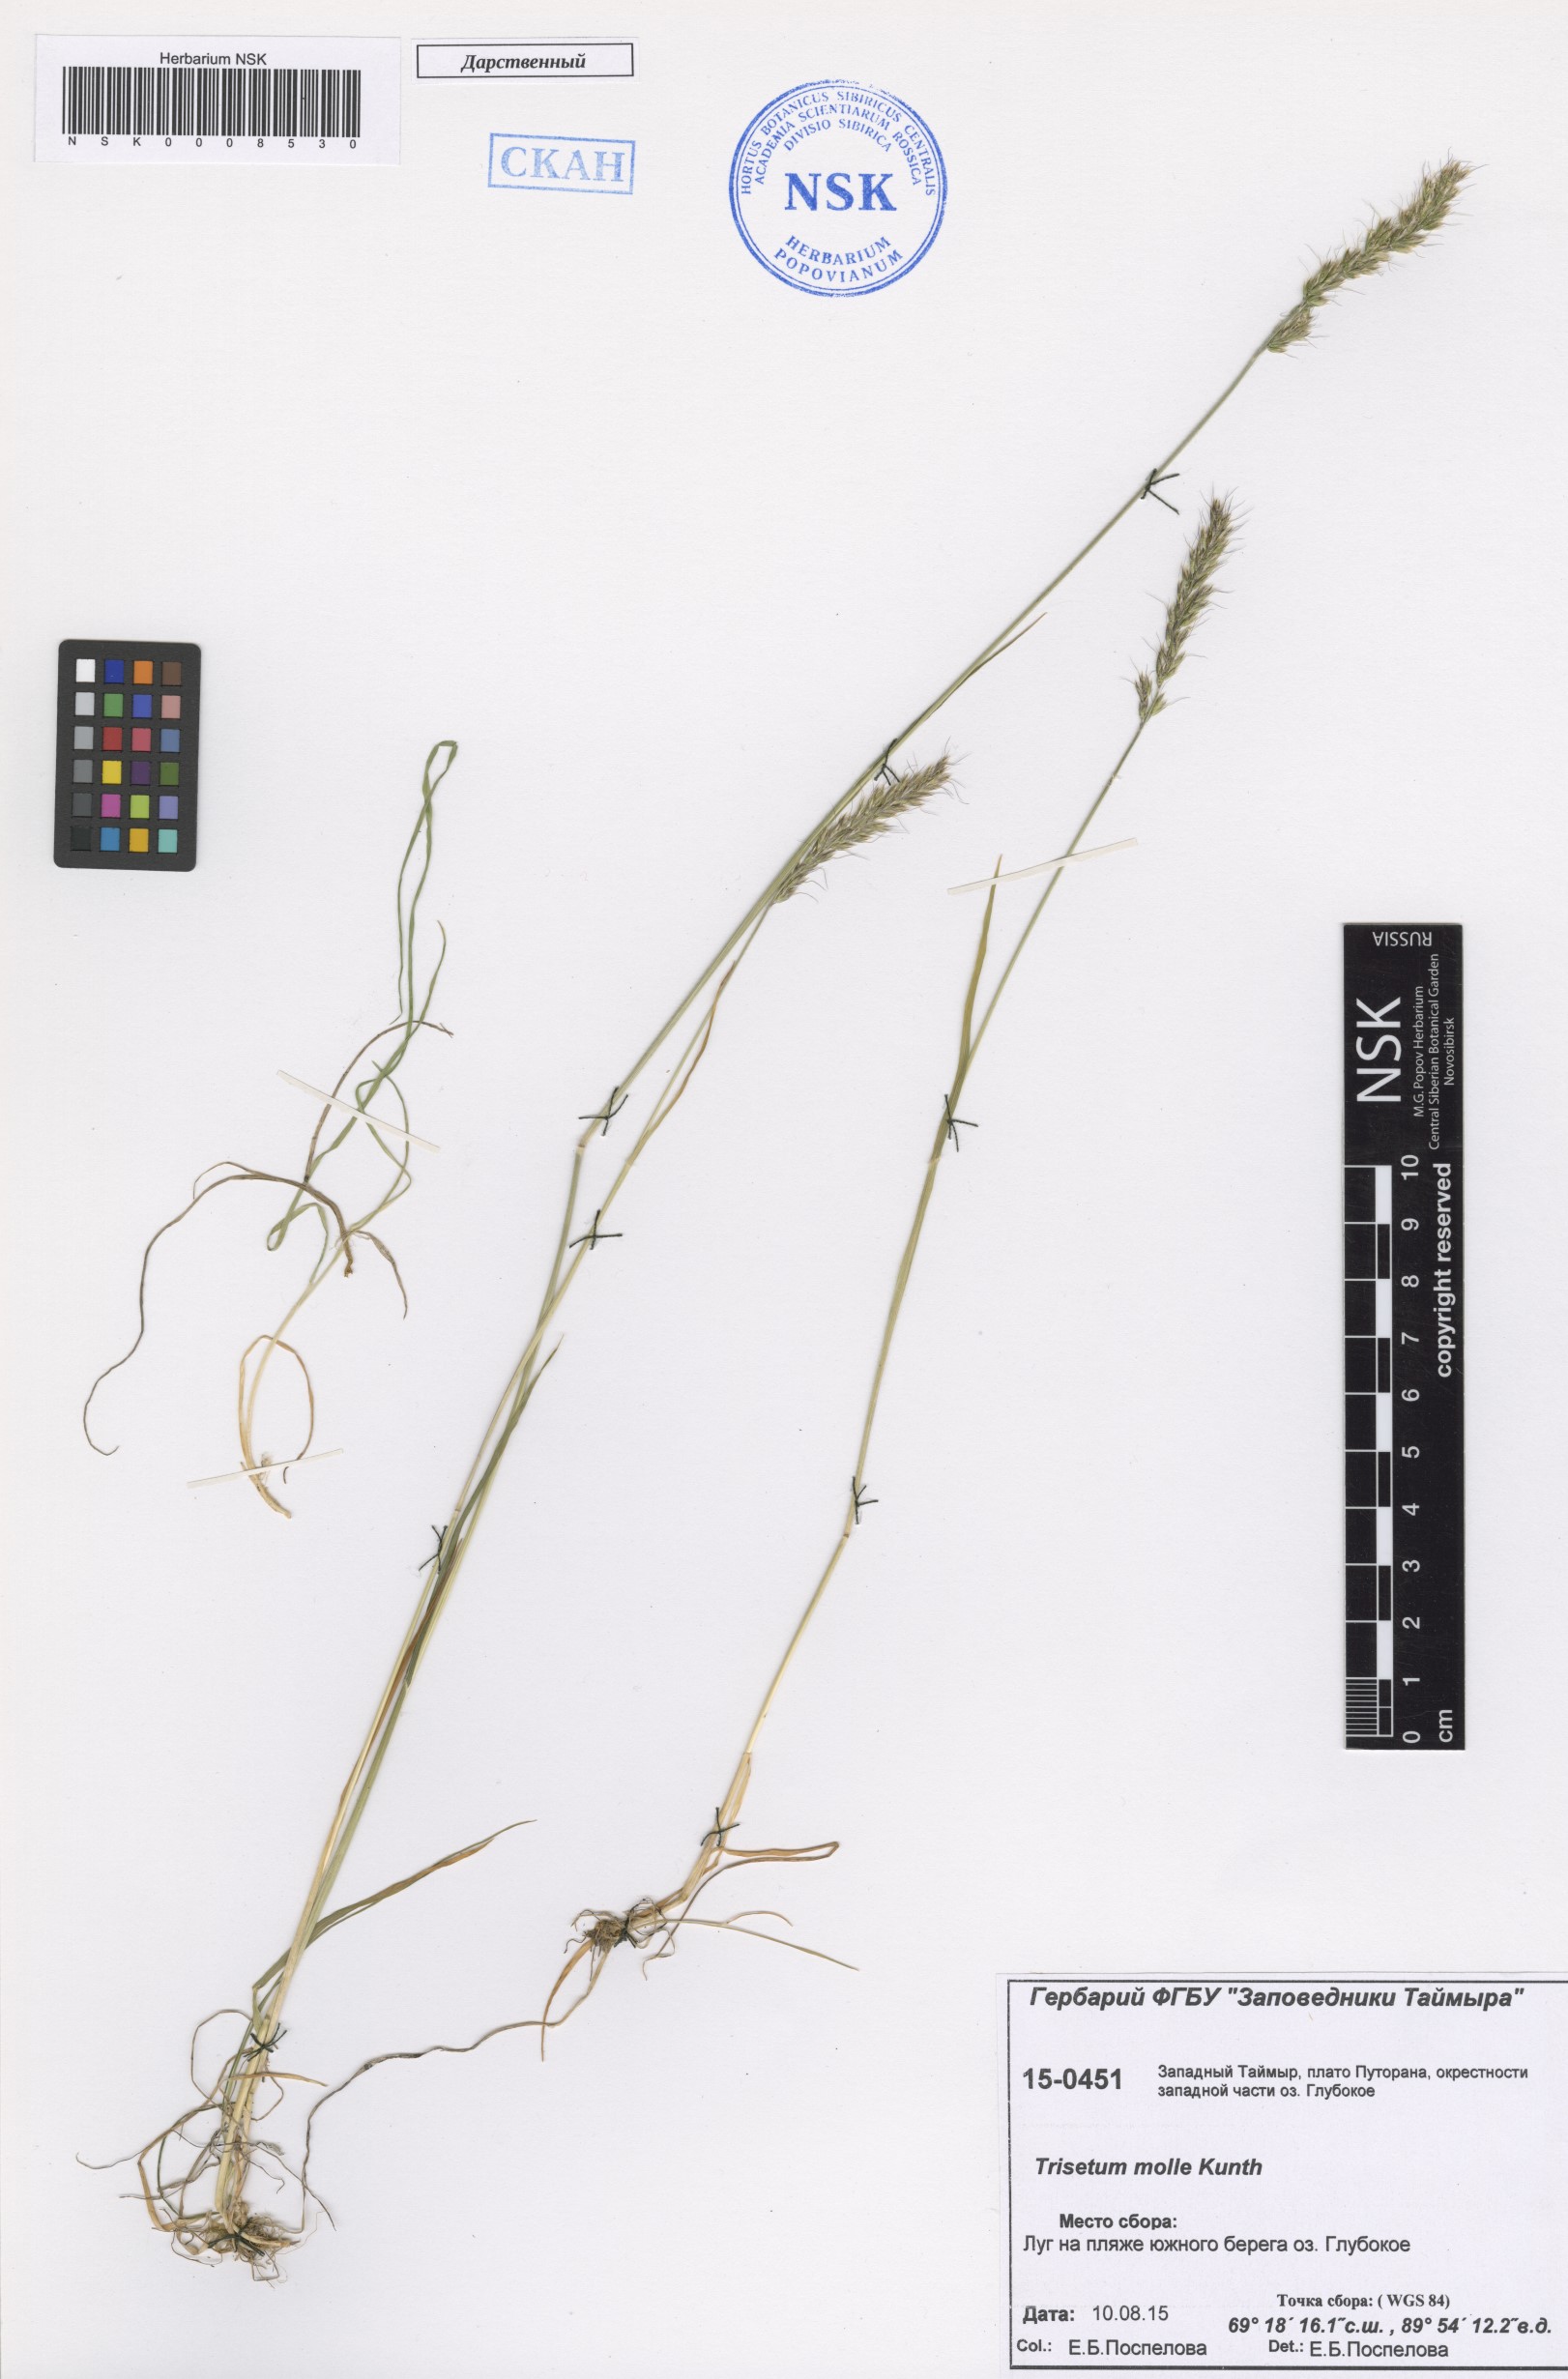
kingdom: Plantae
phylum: Tracheophyta
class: Liliopsida
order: Poales
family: Poaceae
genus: Koeleria
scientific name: Koeleria spicata
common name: Mountain trisetum
